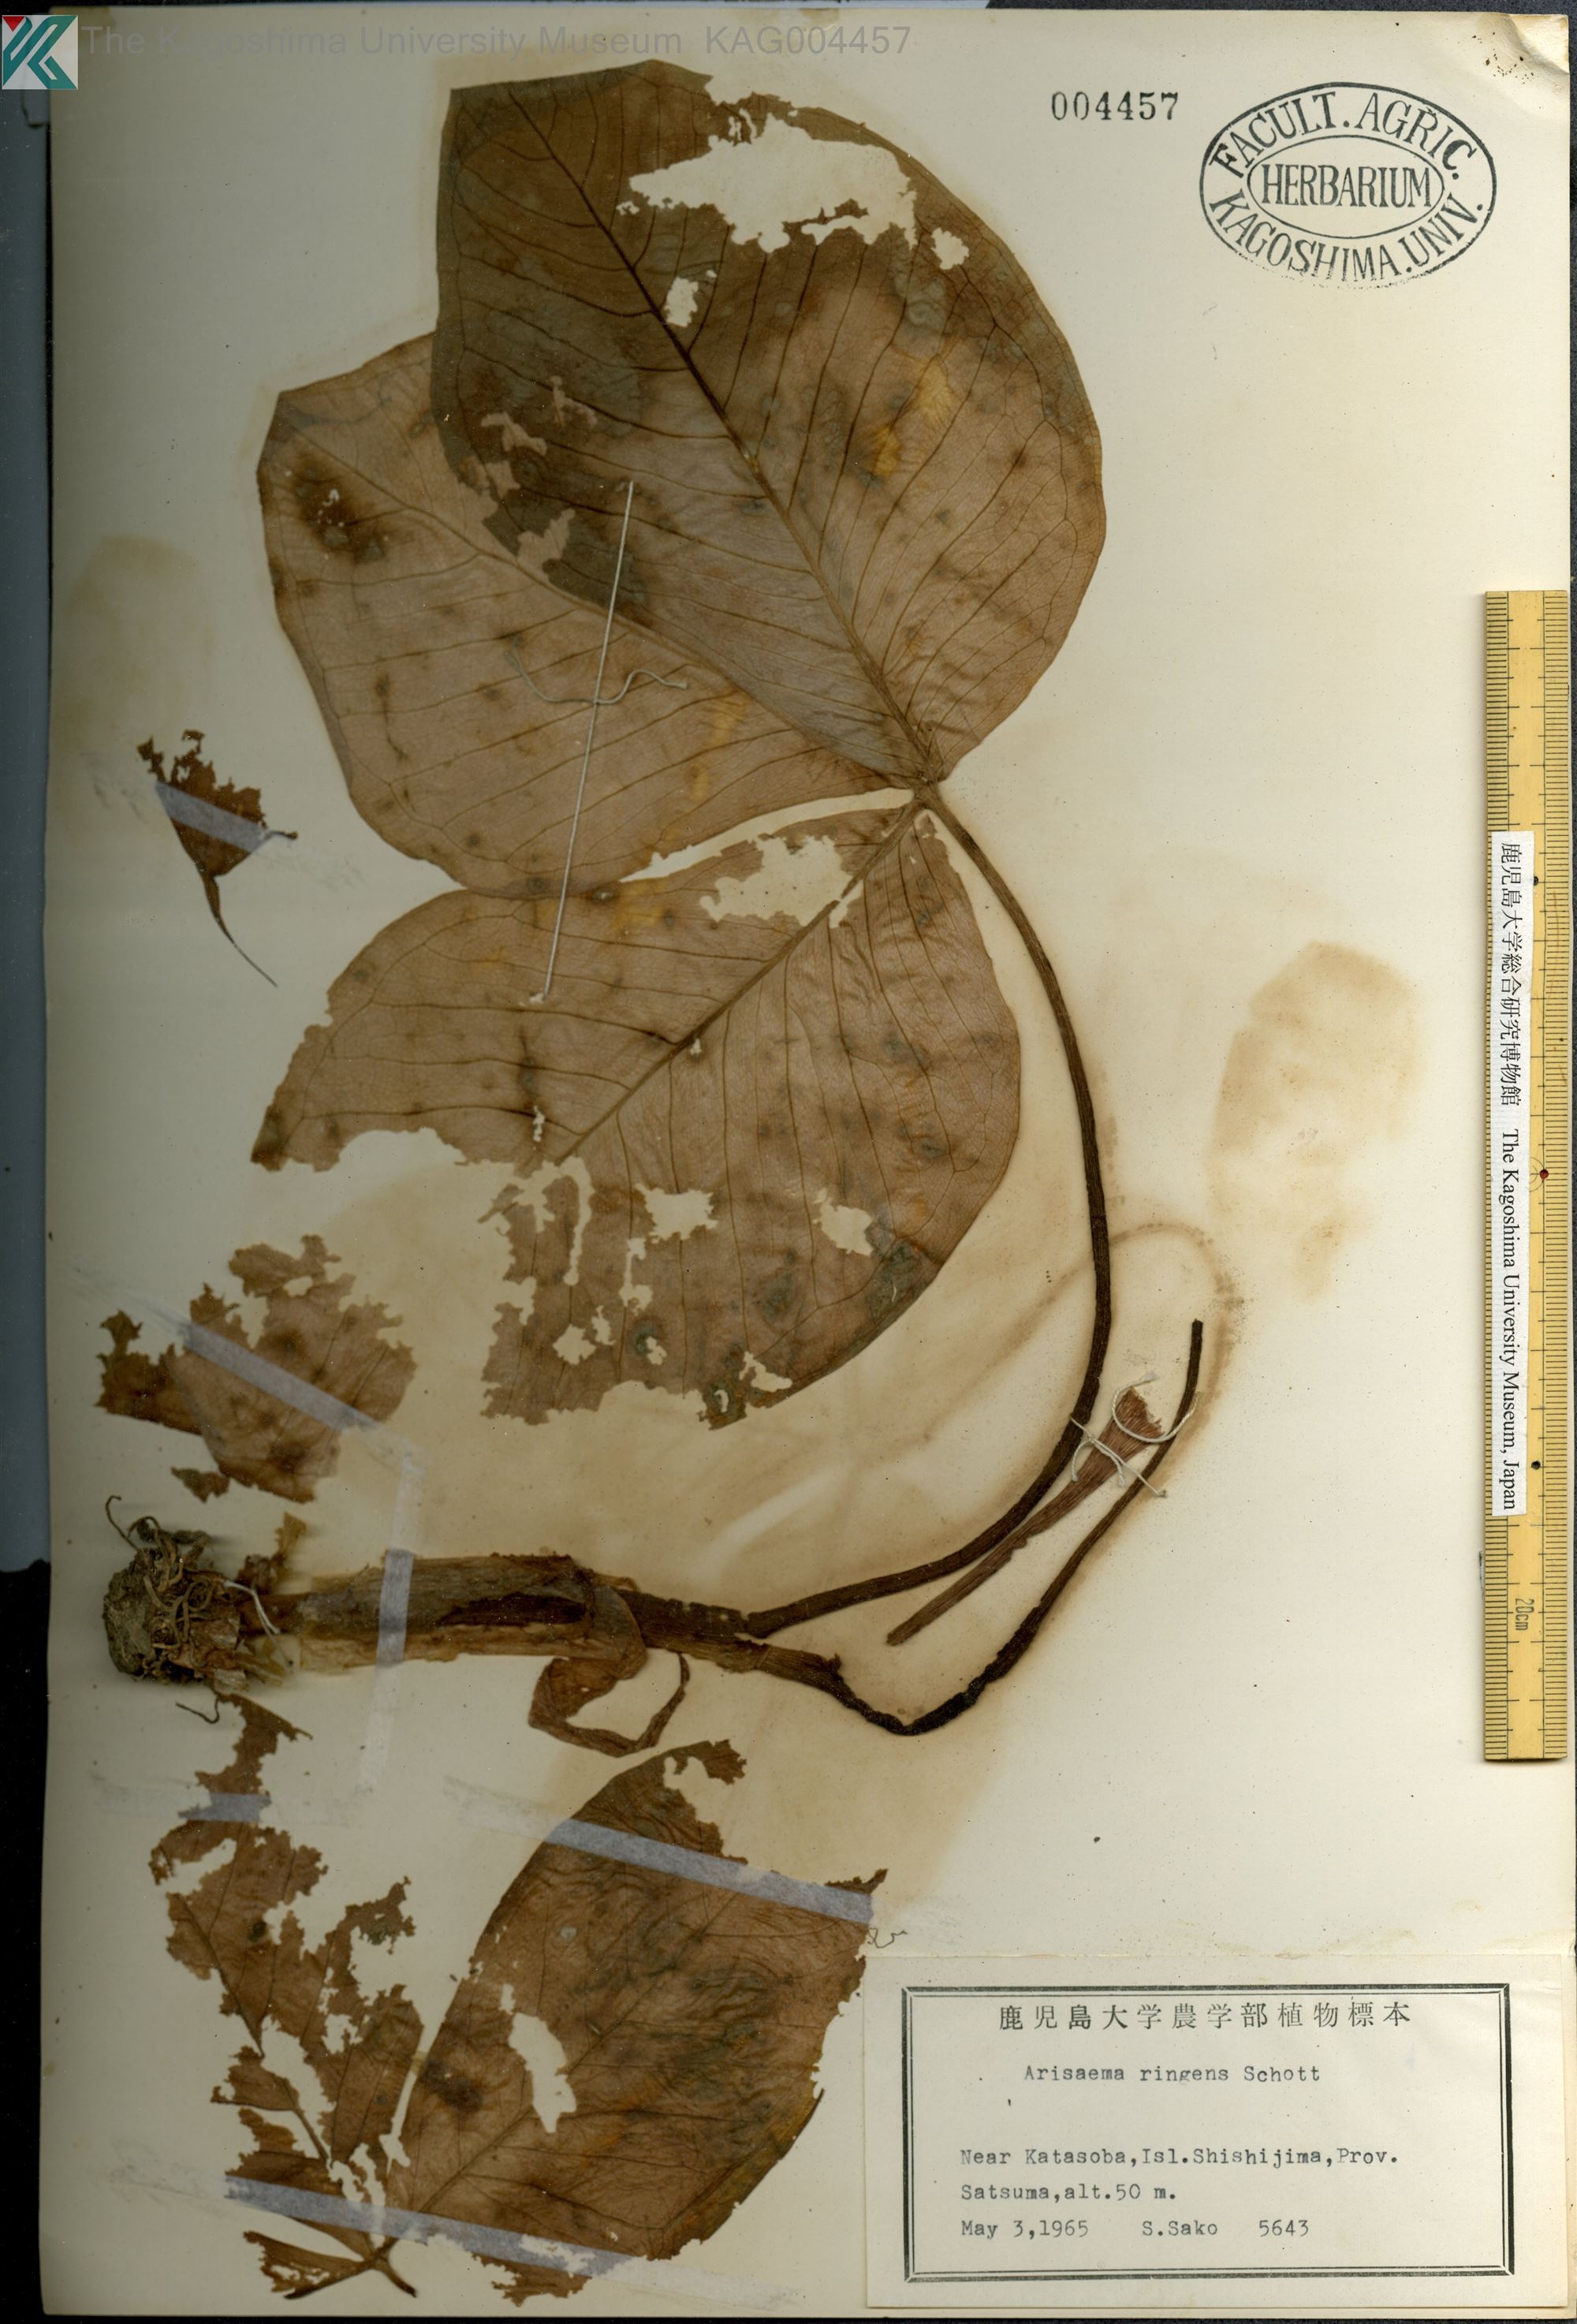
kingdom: Plantae
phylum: Tracheophyta
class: Liliopsida
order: Alismatales
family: Araceae
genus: Arisaema
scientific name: Arisaema ringens
